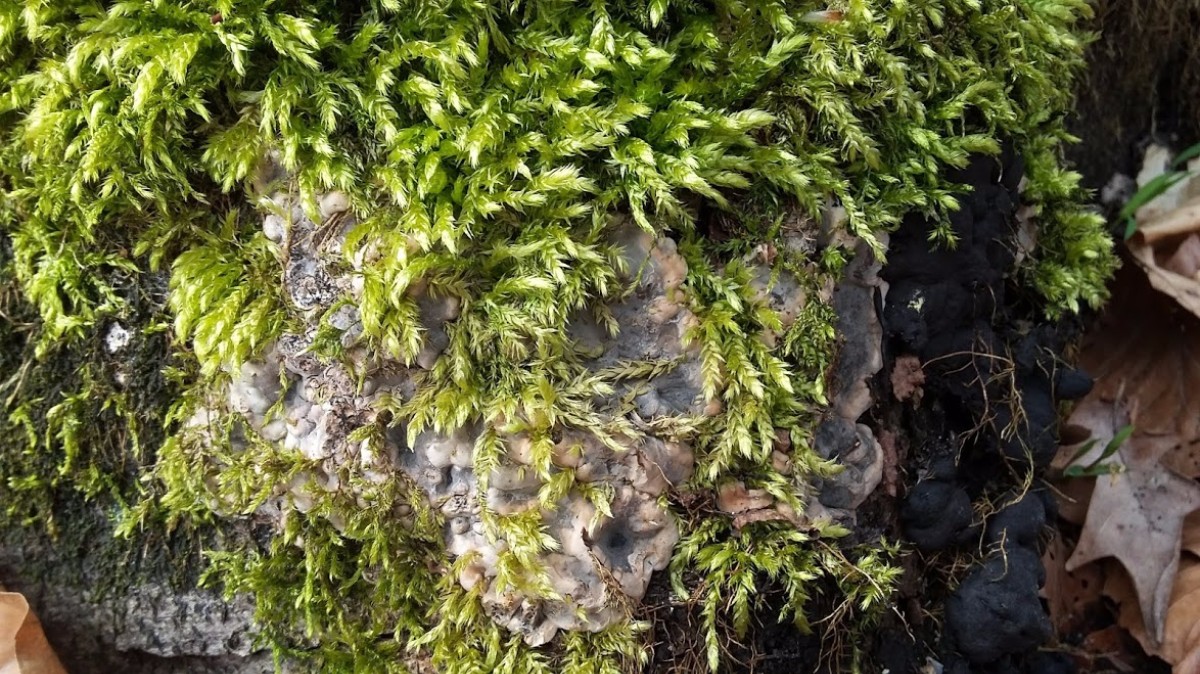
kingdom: Fungi
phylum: Ascomycota
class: Sordariomycetes
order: Xylariales
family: Xylariaceae
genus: Kretzschmaria
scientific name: Kretzschmaria deusta
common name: stor kulsvamp
